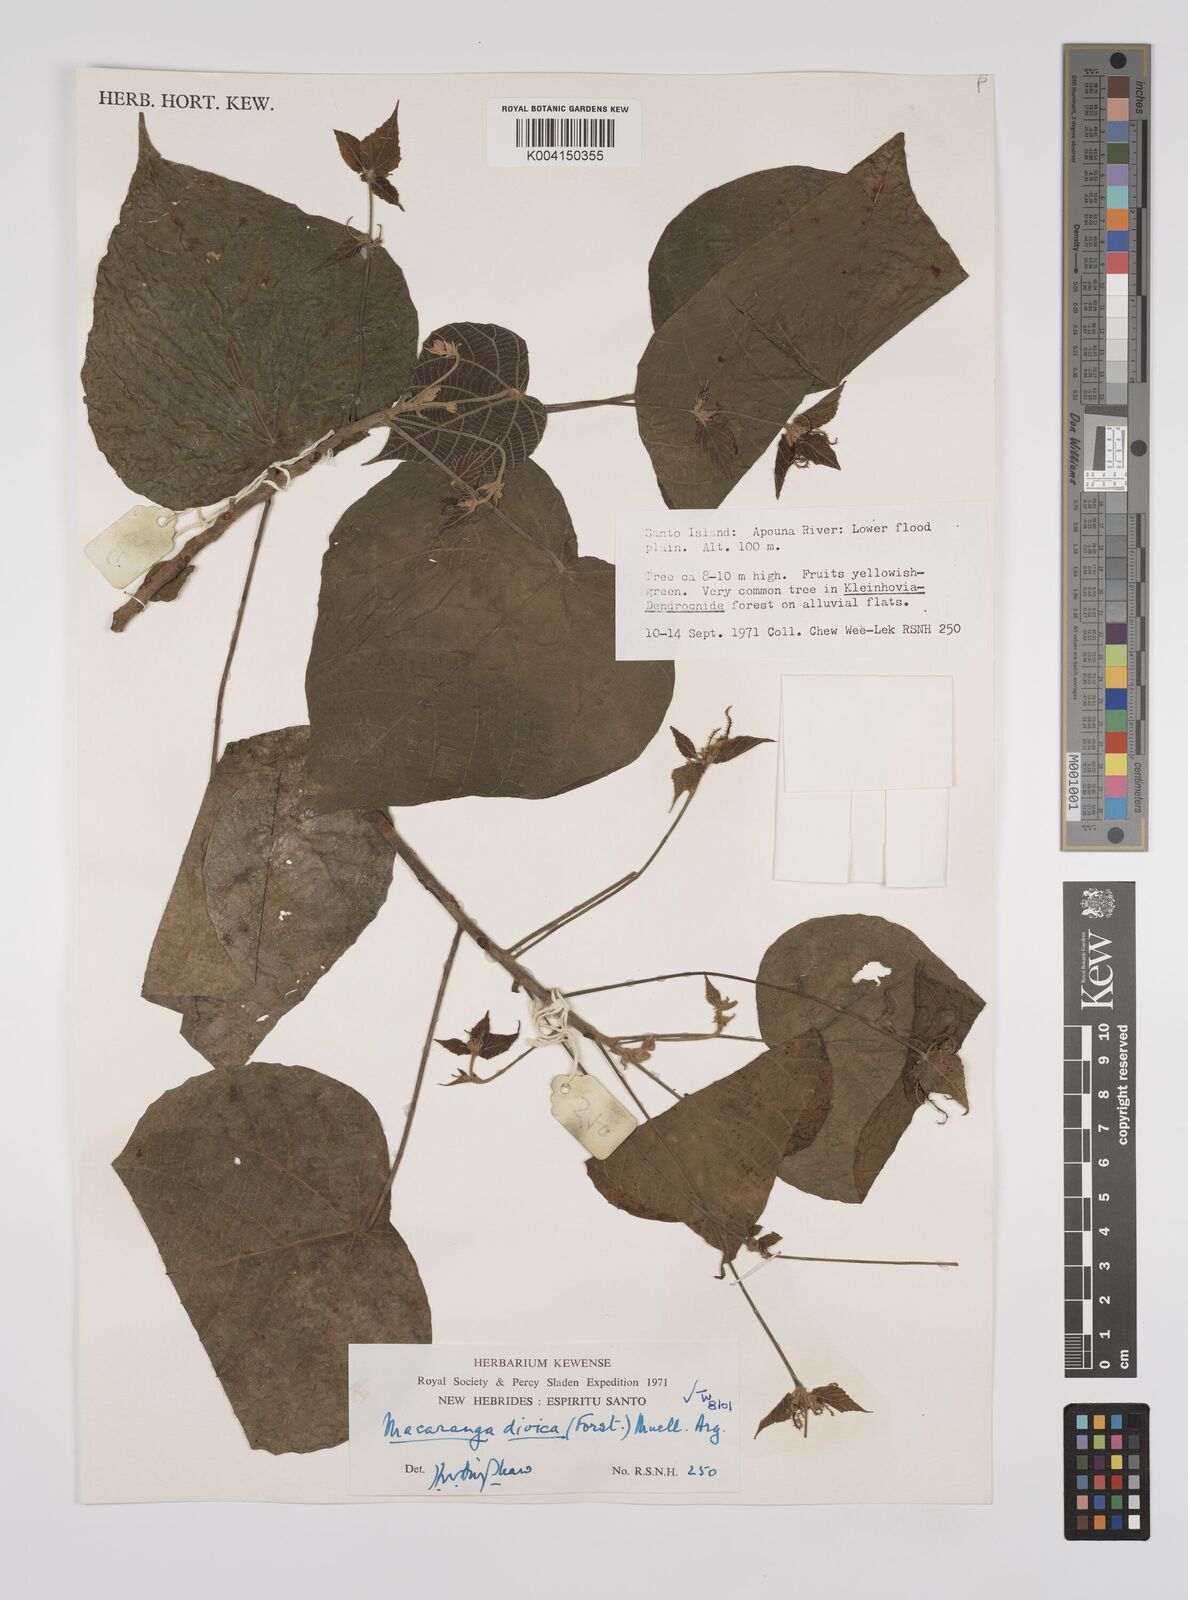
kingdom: Plantae
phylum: Tracheophyta
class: Magnoliopsida
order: Malpighiales
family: Euphorbiaceae
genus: Macaranga
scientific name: Macaranga dioica
